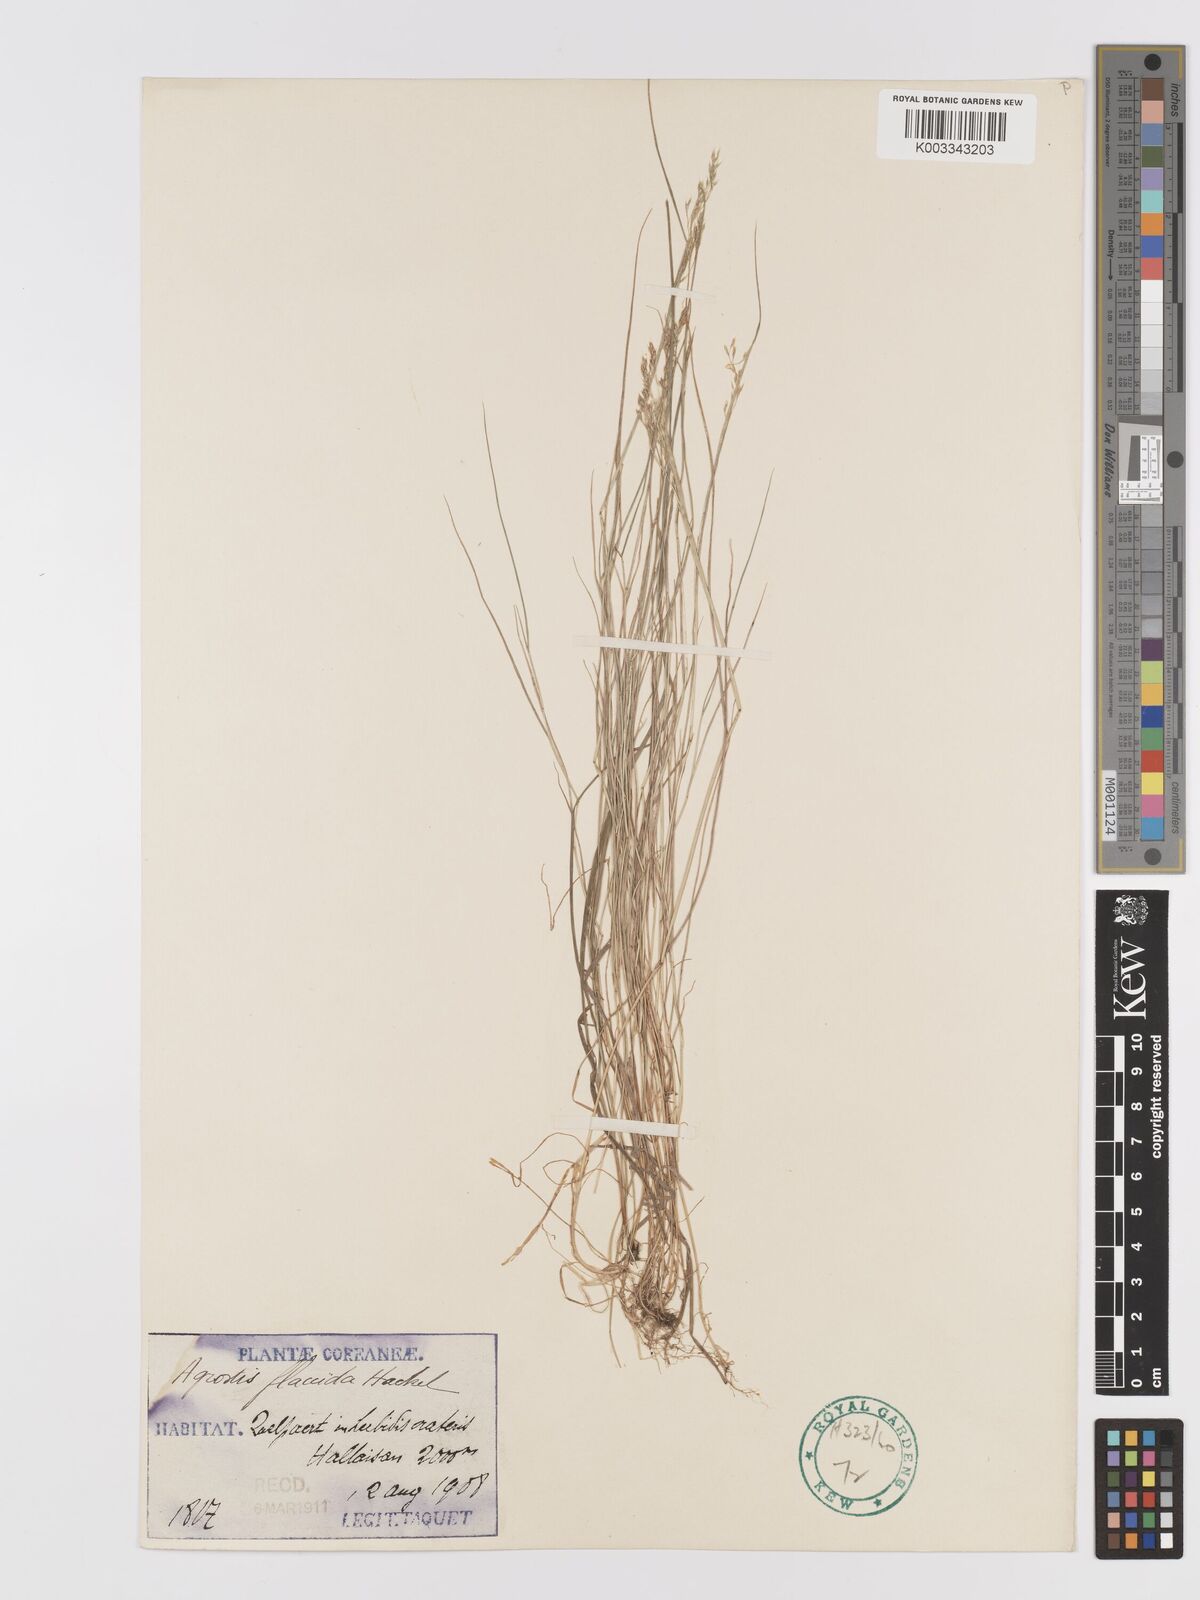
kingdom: Plantae
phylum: Tracheophyta
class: Liliopsida
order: Poales
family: Poaceae
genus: Agrostis
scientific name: Agrostis flaccida
